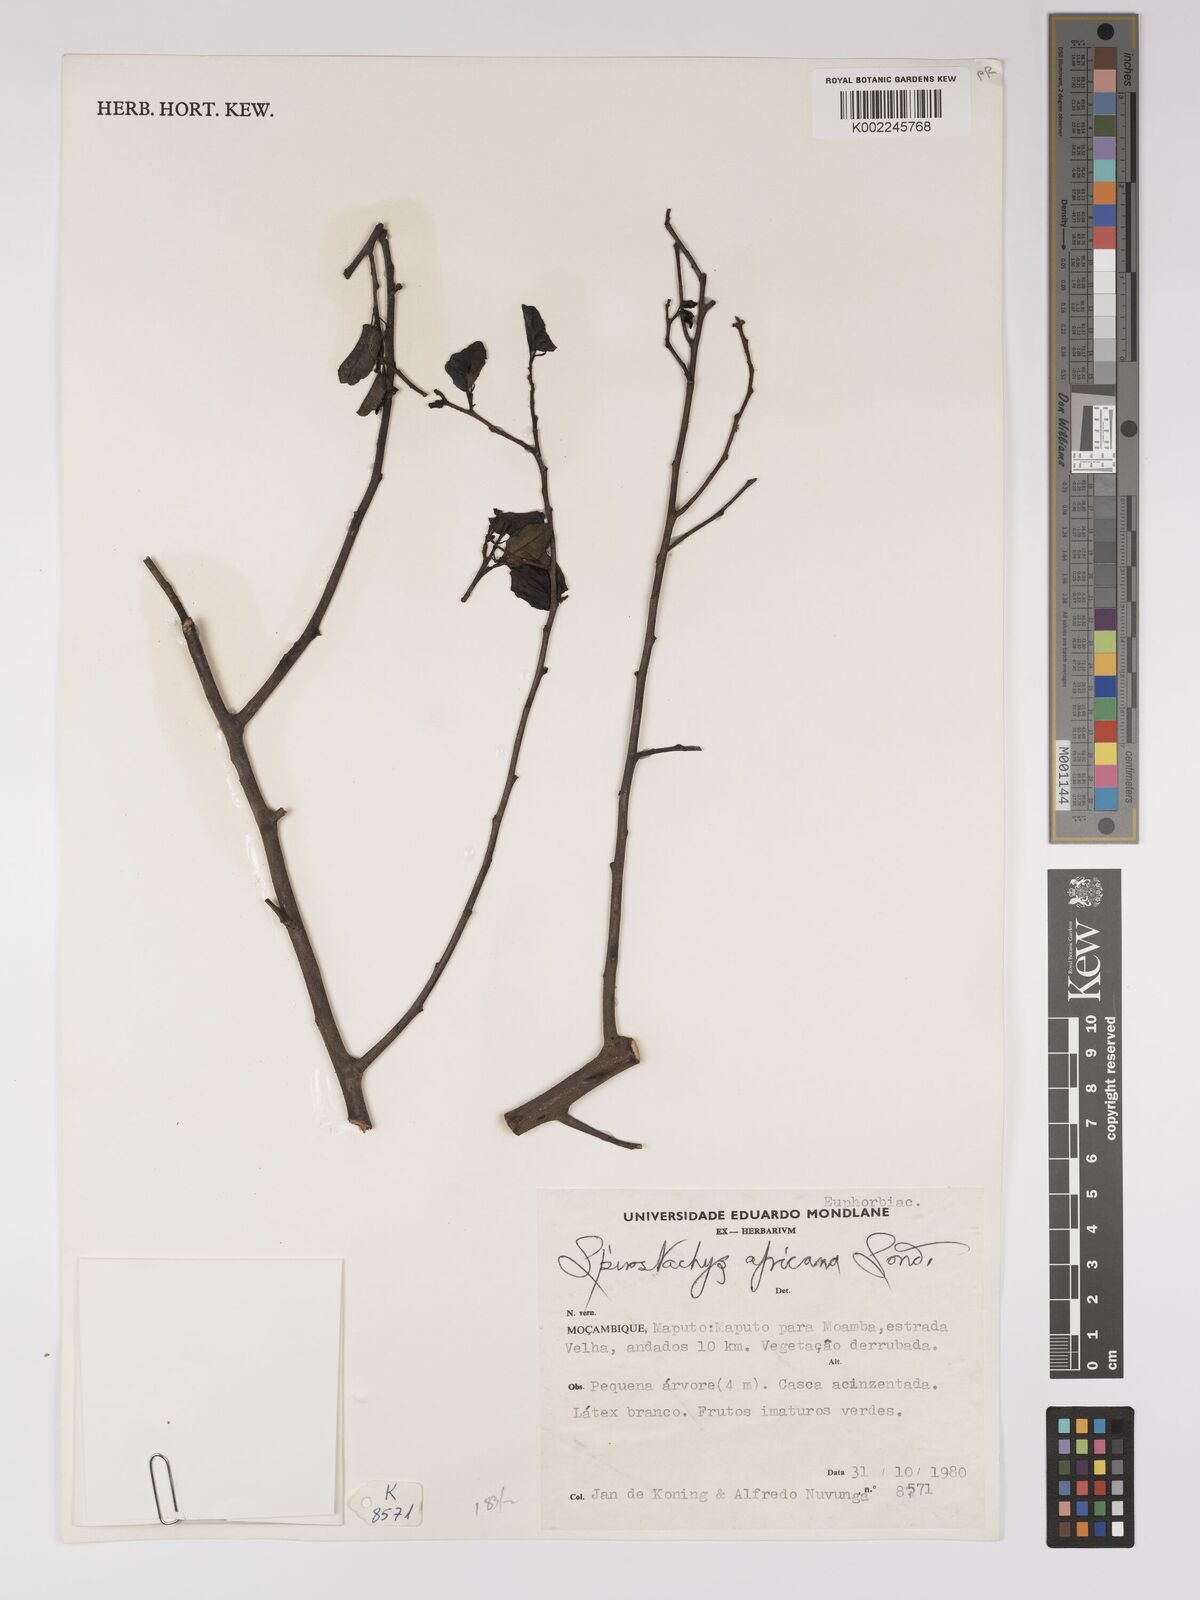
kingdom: Plantae
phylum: Tracheophyta
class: Magnoliopsida
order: Malpighiales
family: Euphorbiaceae
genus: Spirostachys
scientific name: Spirostachys africana
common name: Tamboti
